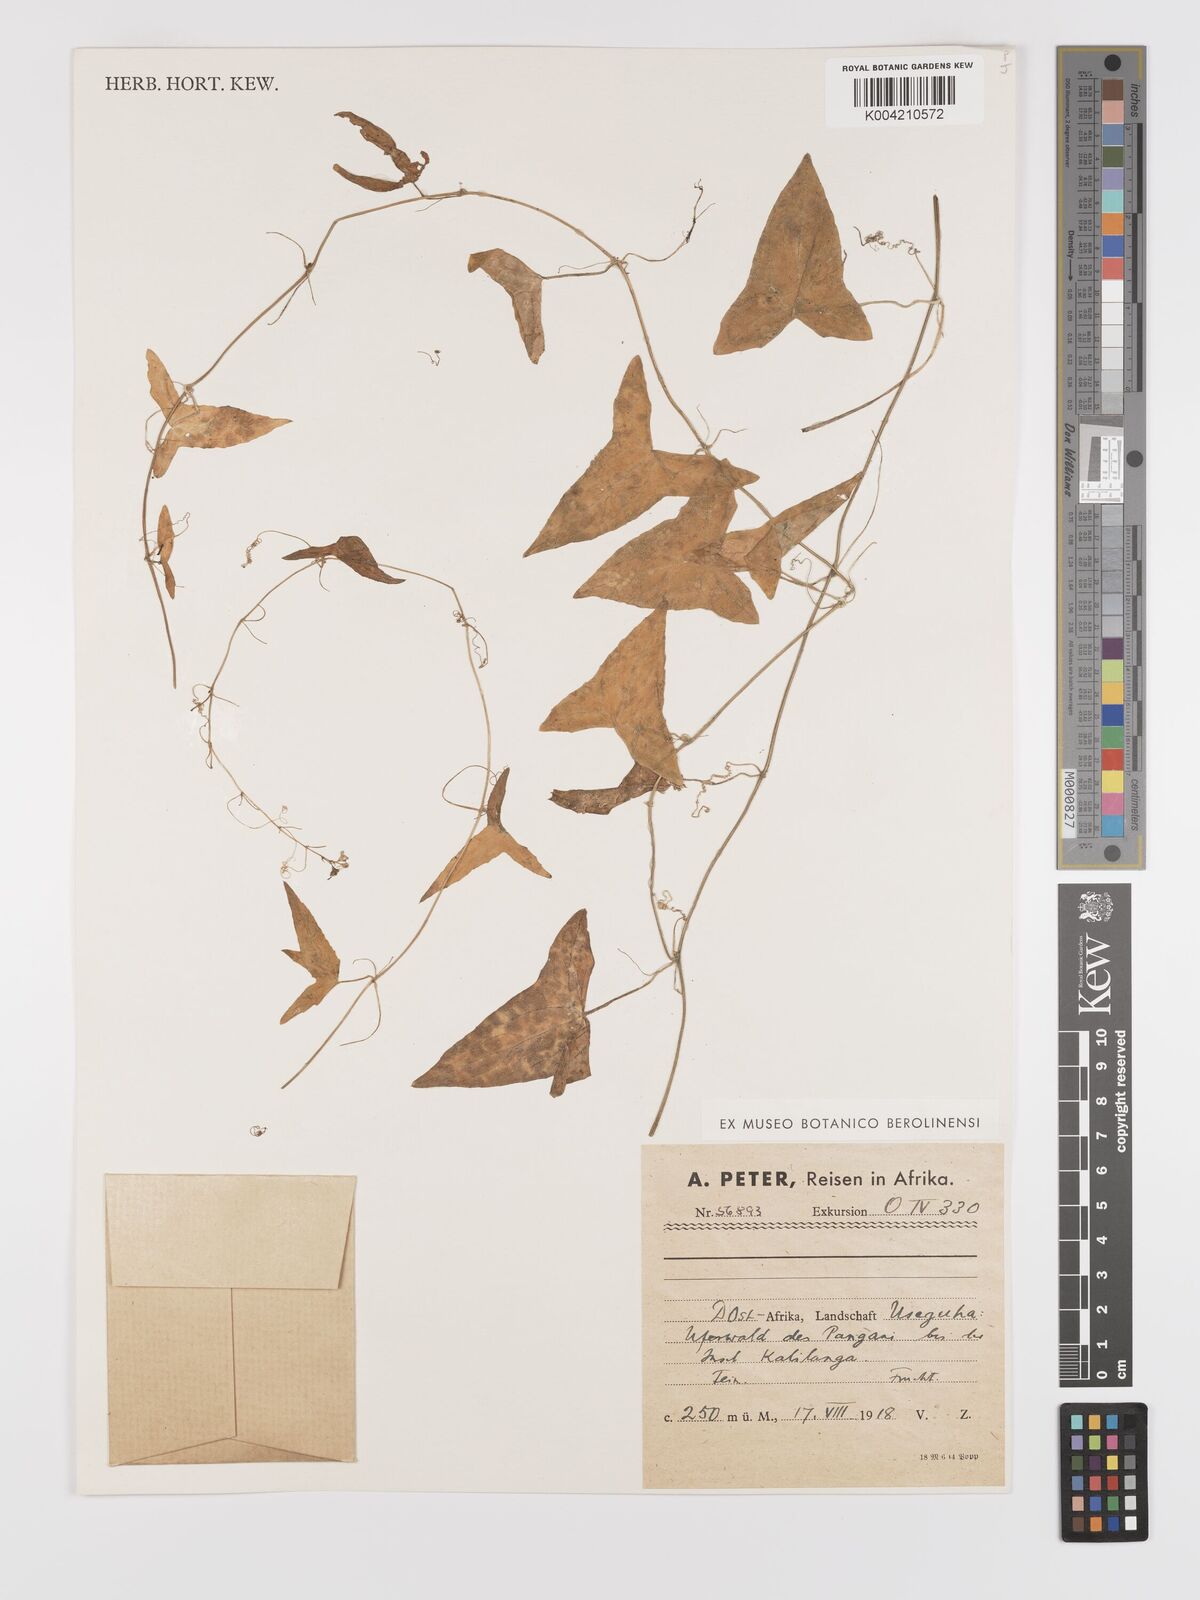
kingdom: Plantae
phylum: Tracheophyta
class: Magnoliopsida
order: Cucurbitales
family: Cucurbitaceae
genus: Zehneria
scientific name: Zehneria thwaitesii
